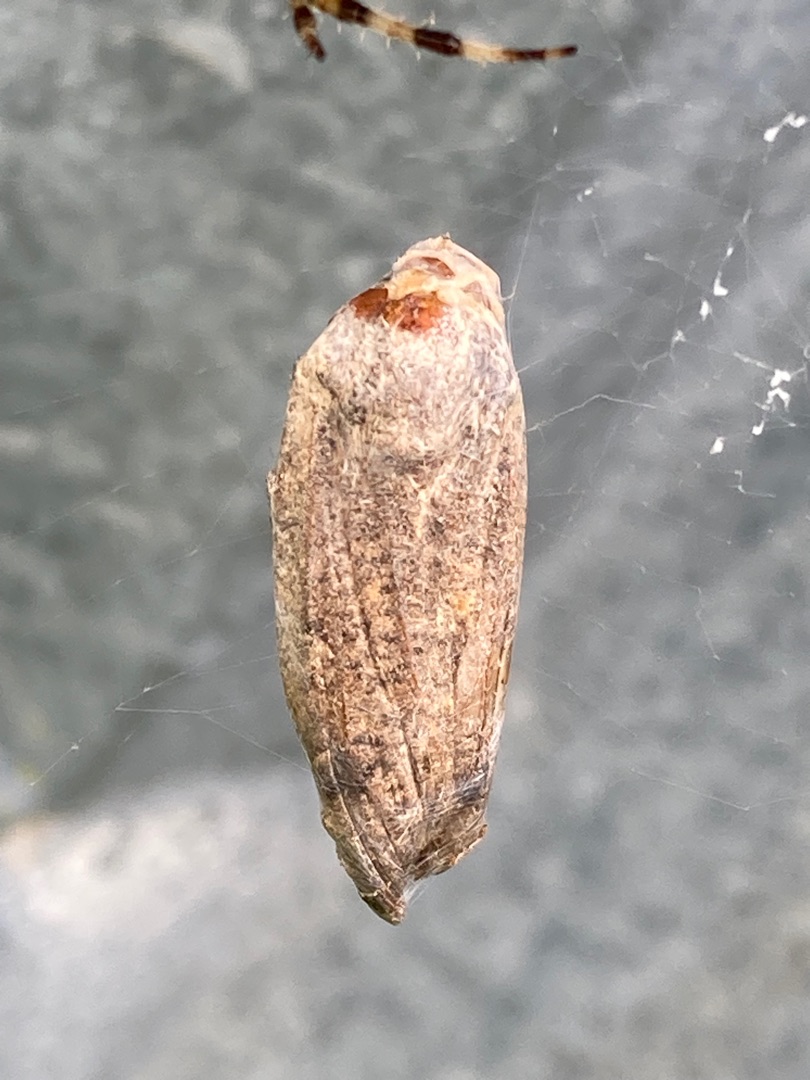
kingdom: Animalia
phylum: Arthropoda
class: Insecta
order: Lepidoptera
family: Noctuidae
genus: Noctua
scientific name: Noctua pronuba
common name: Stor smutugle
